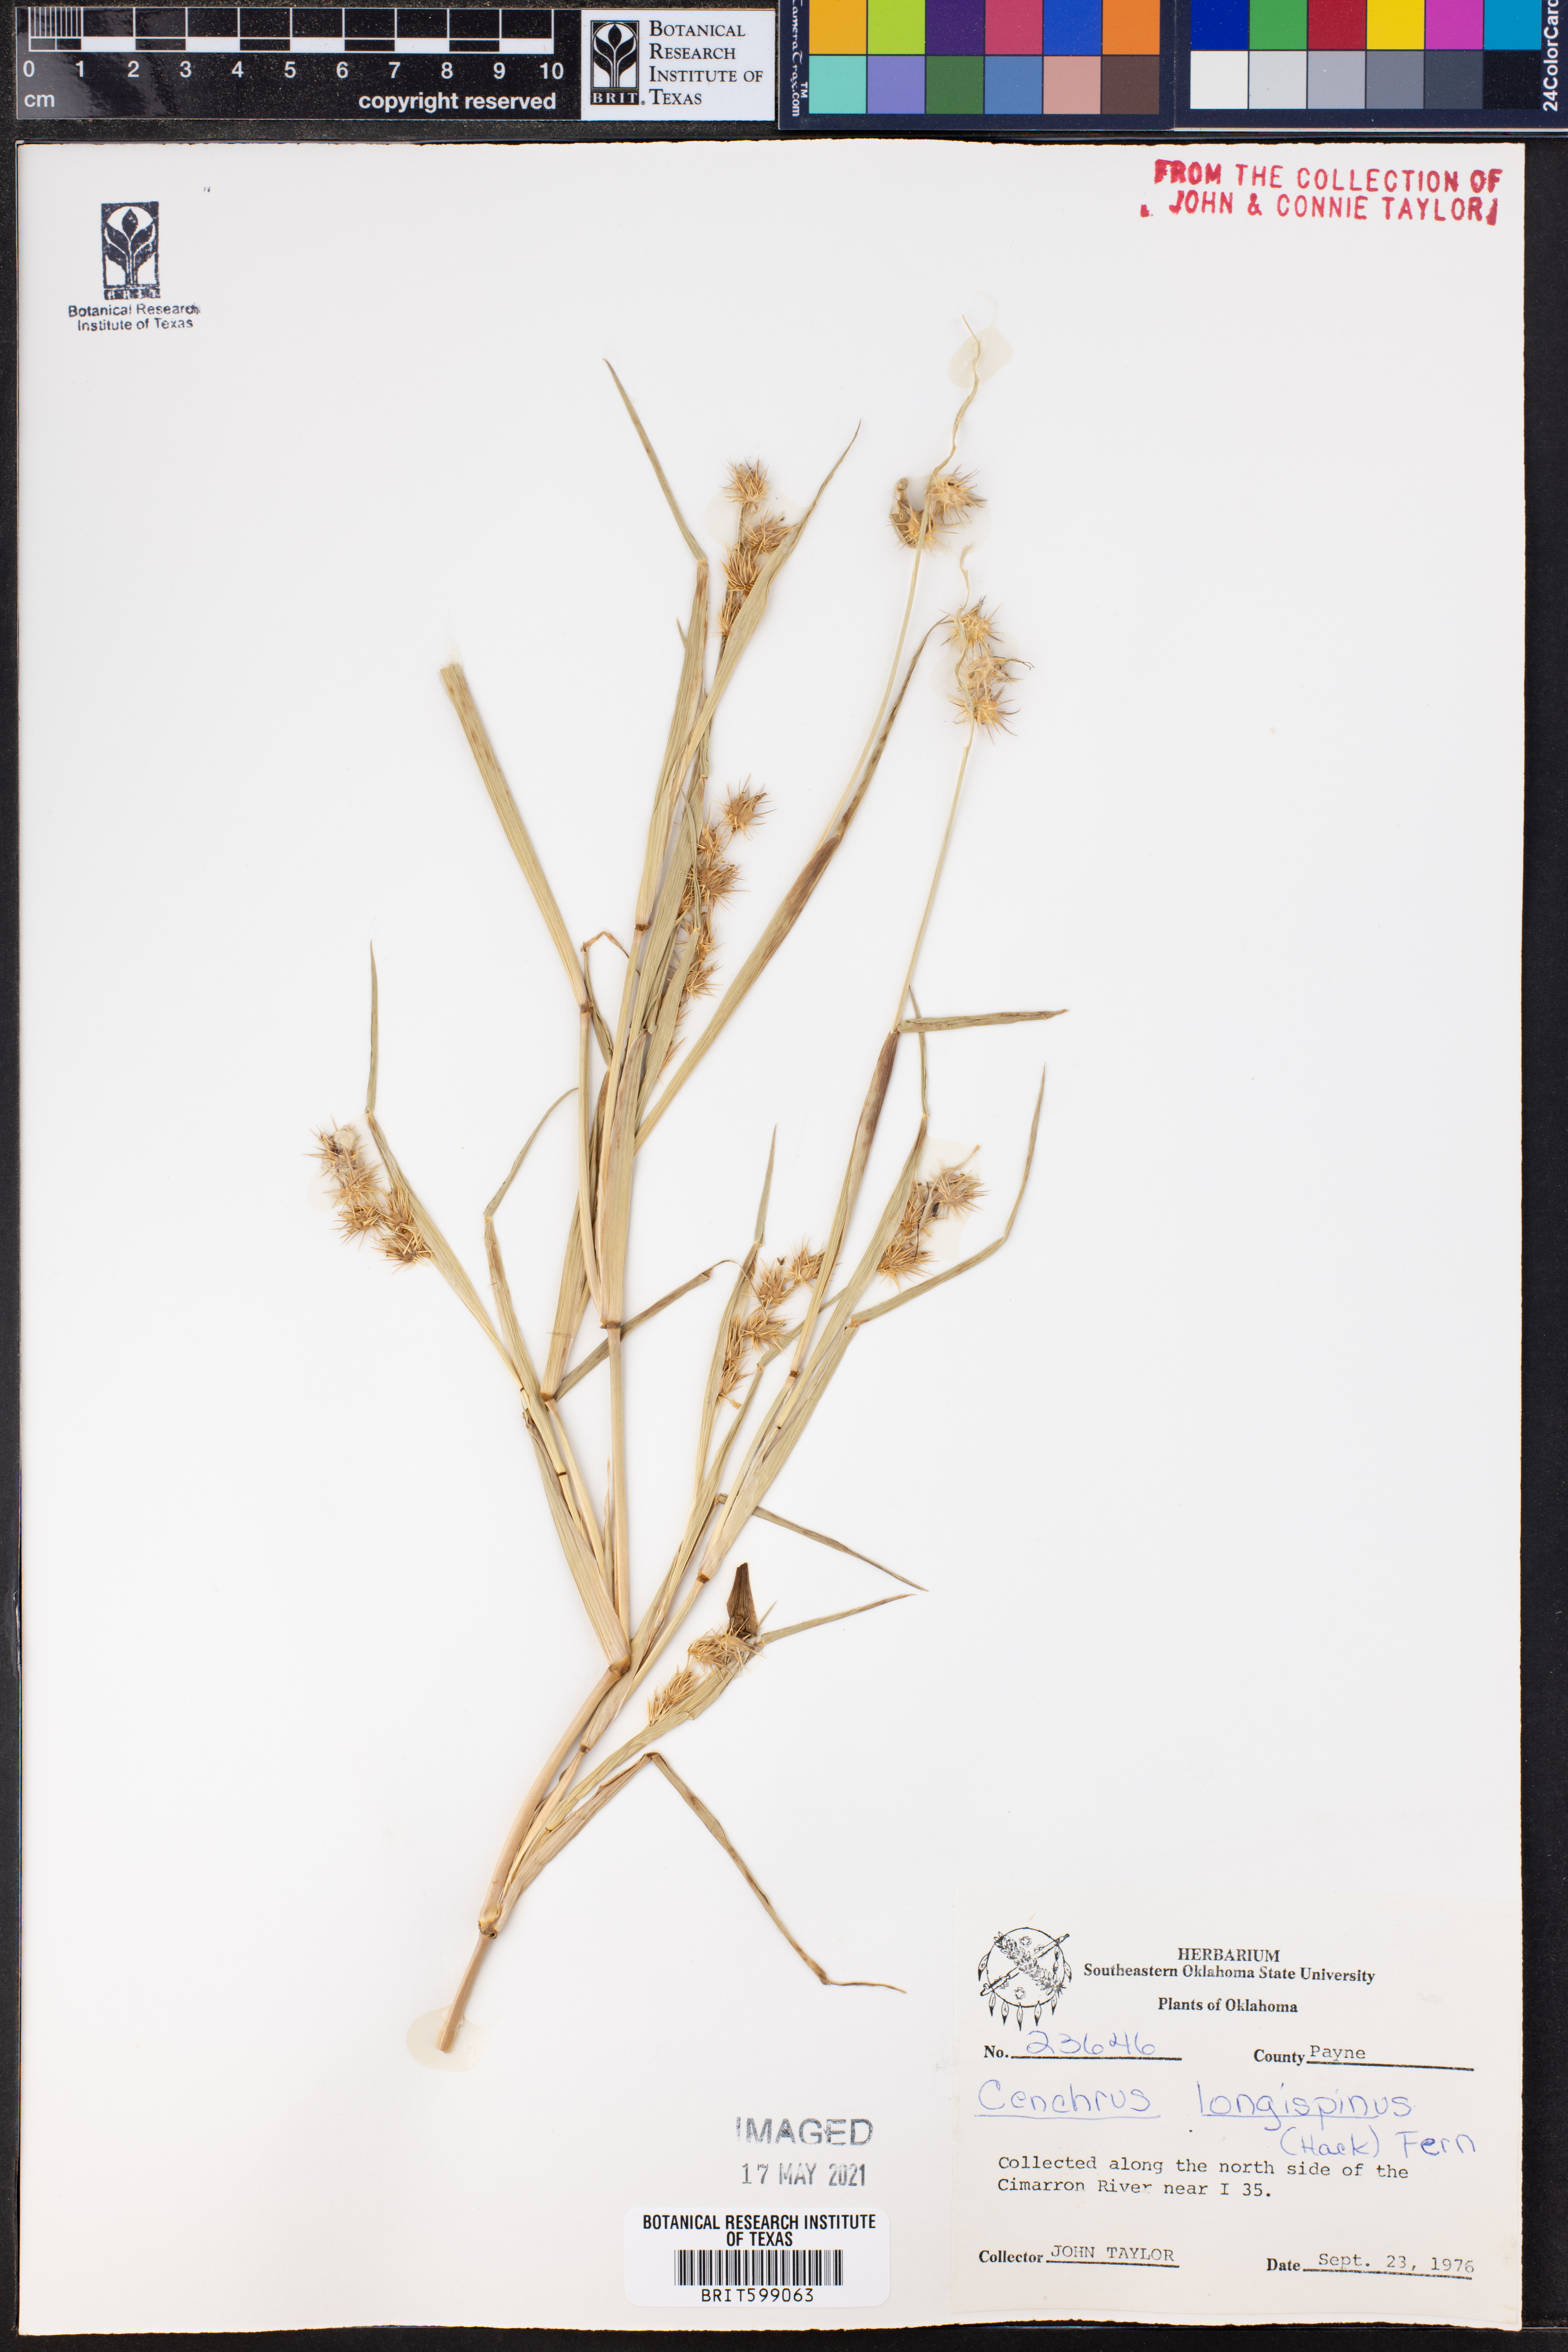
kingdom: Plantae
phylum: Tracheophyta
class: Liliopsida
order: Poales
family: Poaceae
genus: Cenchrus
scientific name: Cenchrus longispinus
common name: Mat sandbur
